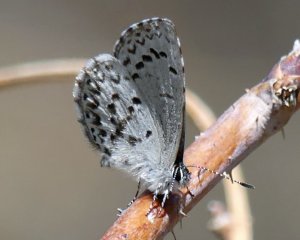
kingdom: Animalia
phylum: Arthropoda
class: Insecta
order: Lepidoptera
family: Lycaenidae
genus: Celastrina
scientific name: Celastrina lucia
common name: Northern Spring Azure
